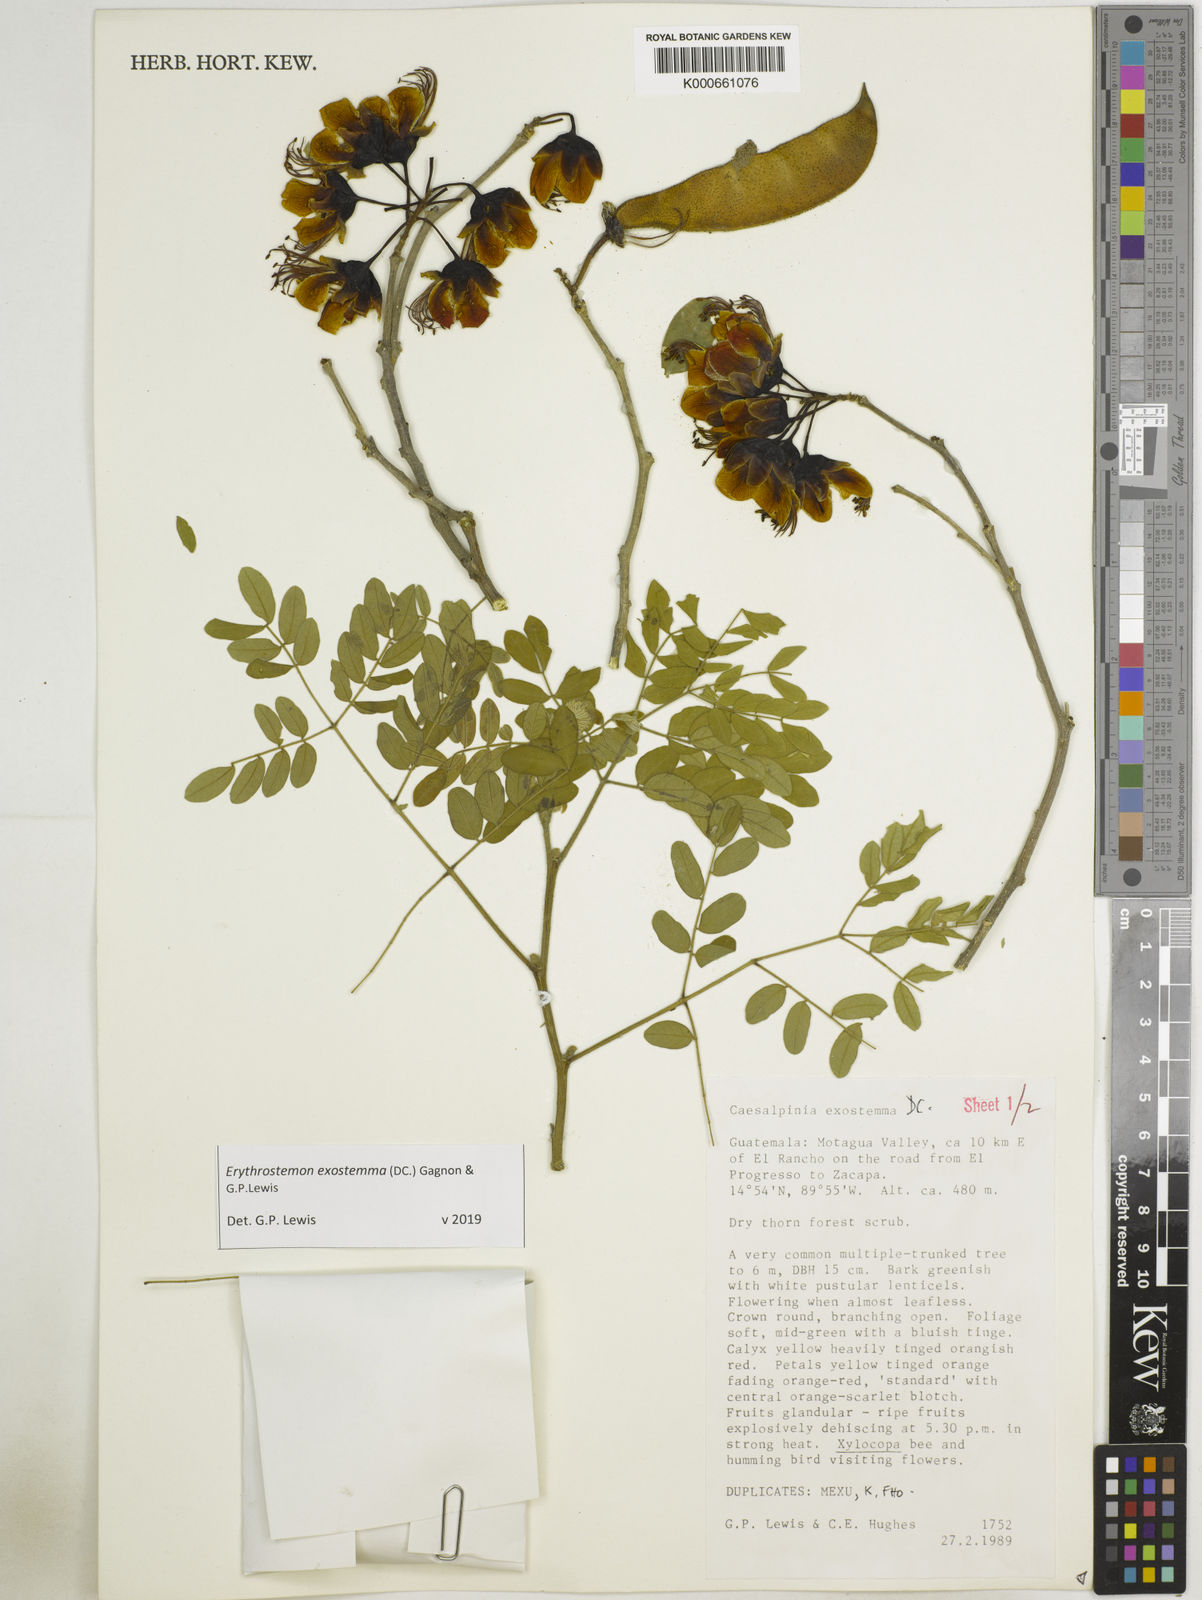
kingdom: Plantae
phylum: Tracheophyta
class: Magnoliopsida
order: Fabales
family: Fabaceae
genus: Erythrostemon
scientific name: Erythrostemon exostemma
